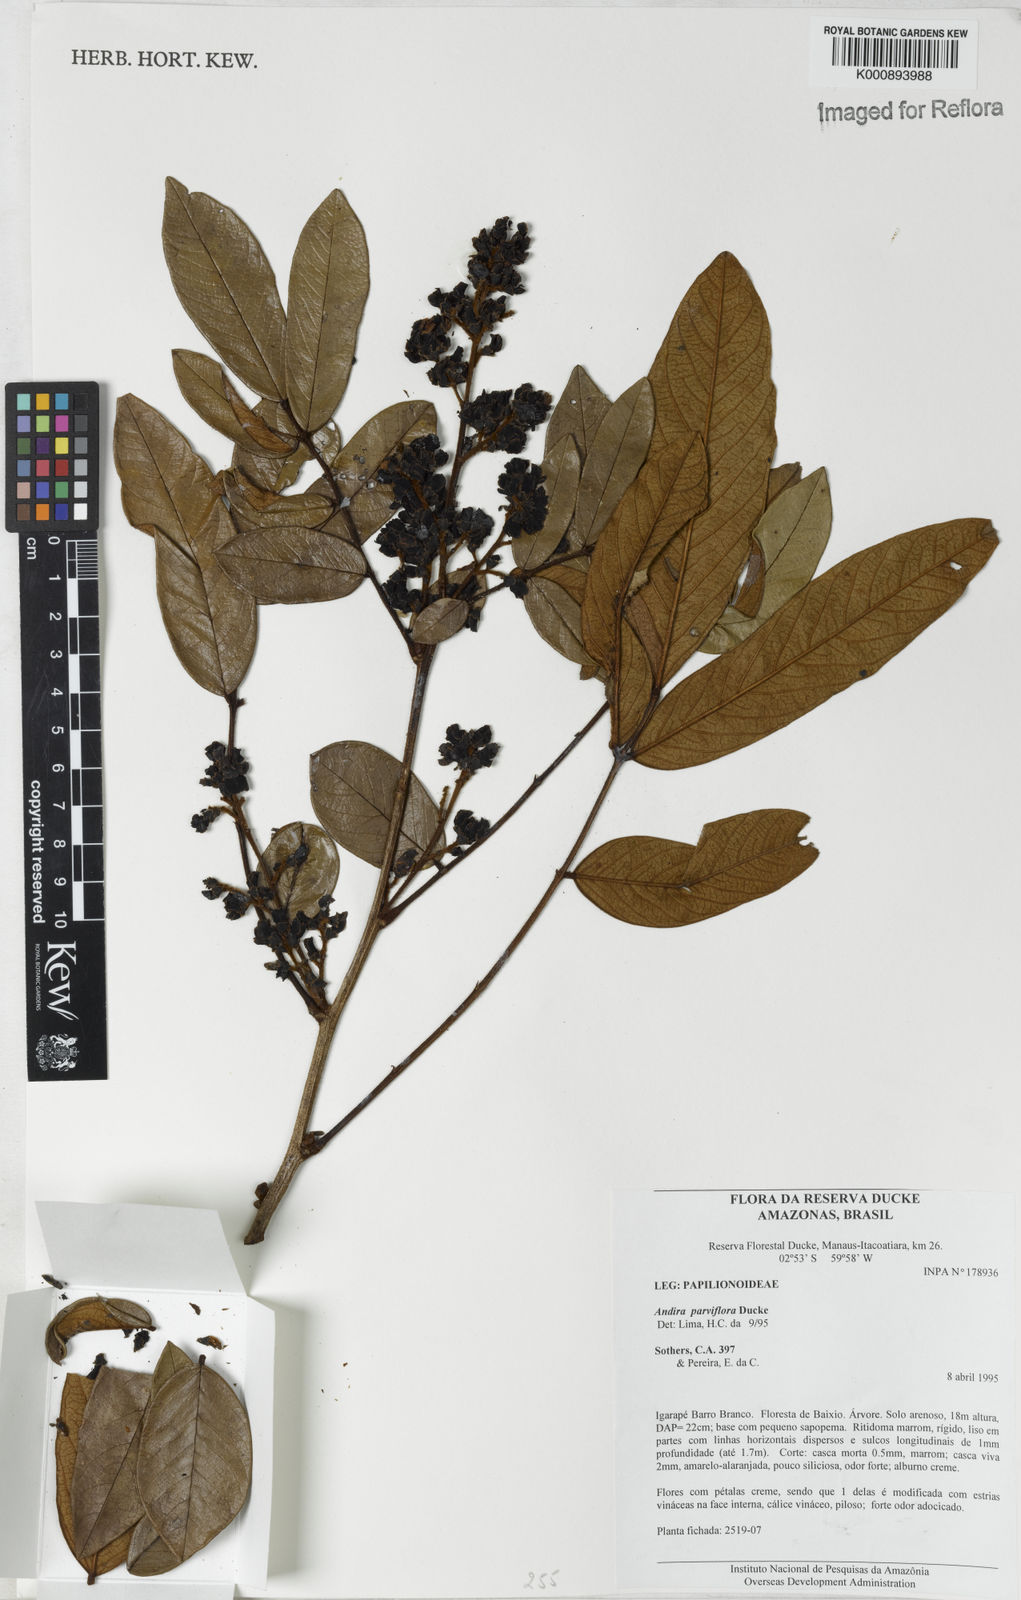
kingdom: Plantae
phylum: Tracheophyta
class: Magnoliopsida
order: Fabales
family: Fabaceae
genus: Andira
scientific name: Andira parviflora
